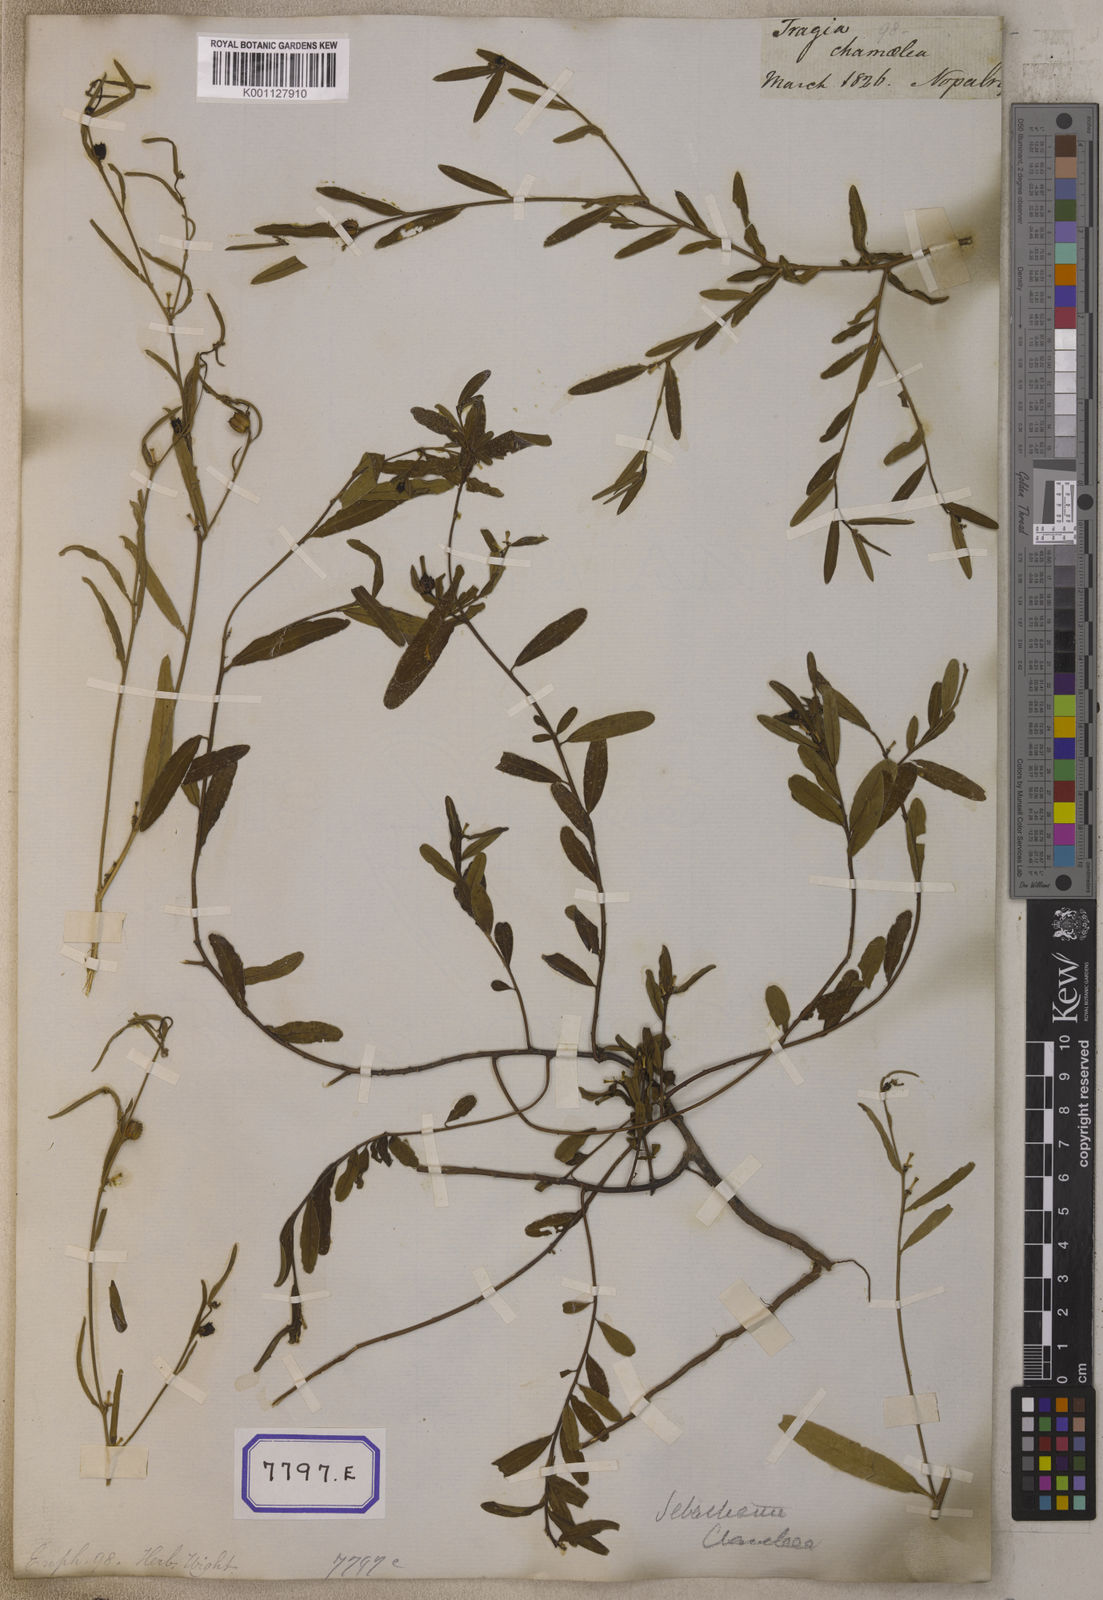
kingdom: Plantae
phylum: Tracheophyta
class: Magnoliopsida
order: Malpighiales
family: Euphorbiaceae
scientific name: Euphorbiaceae
